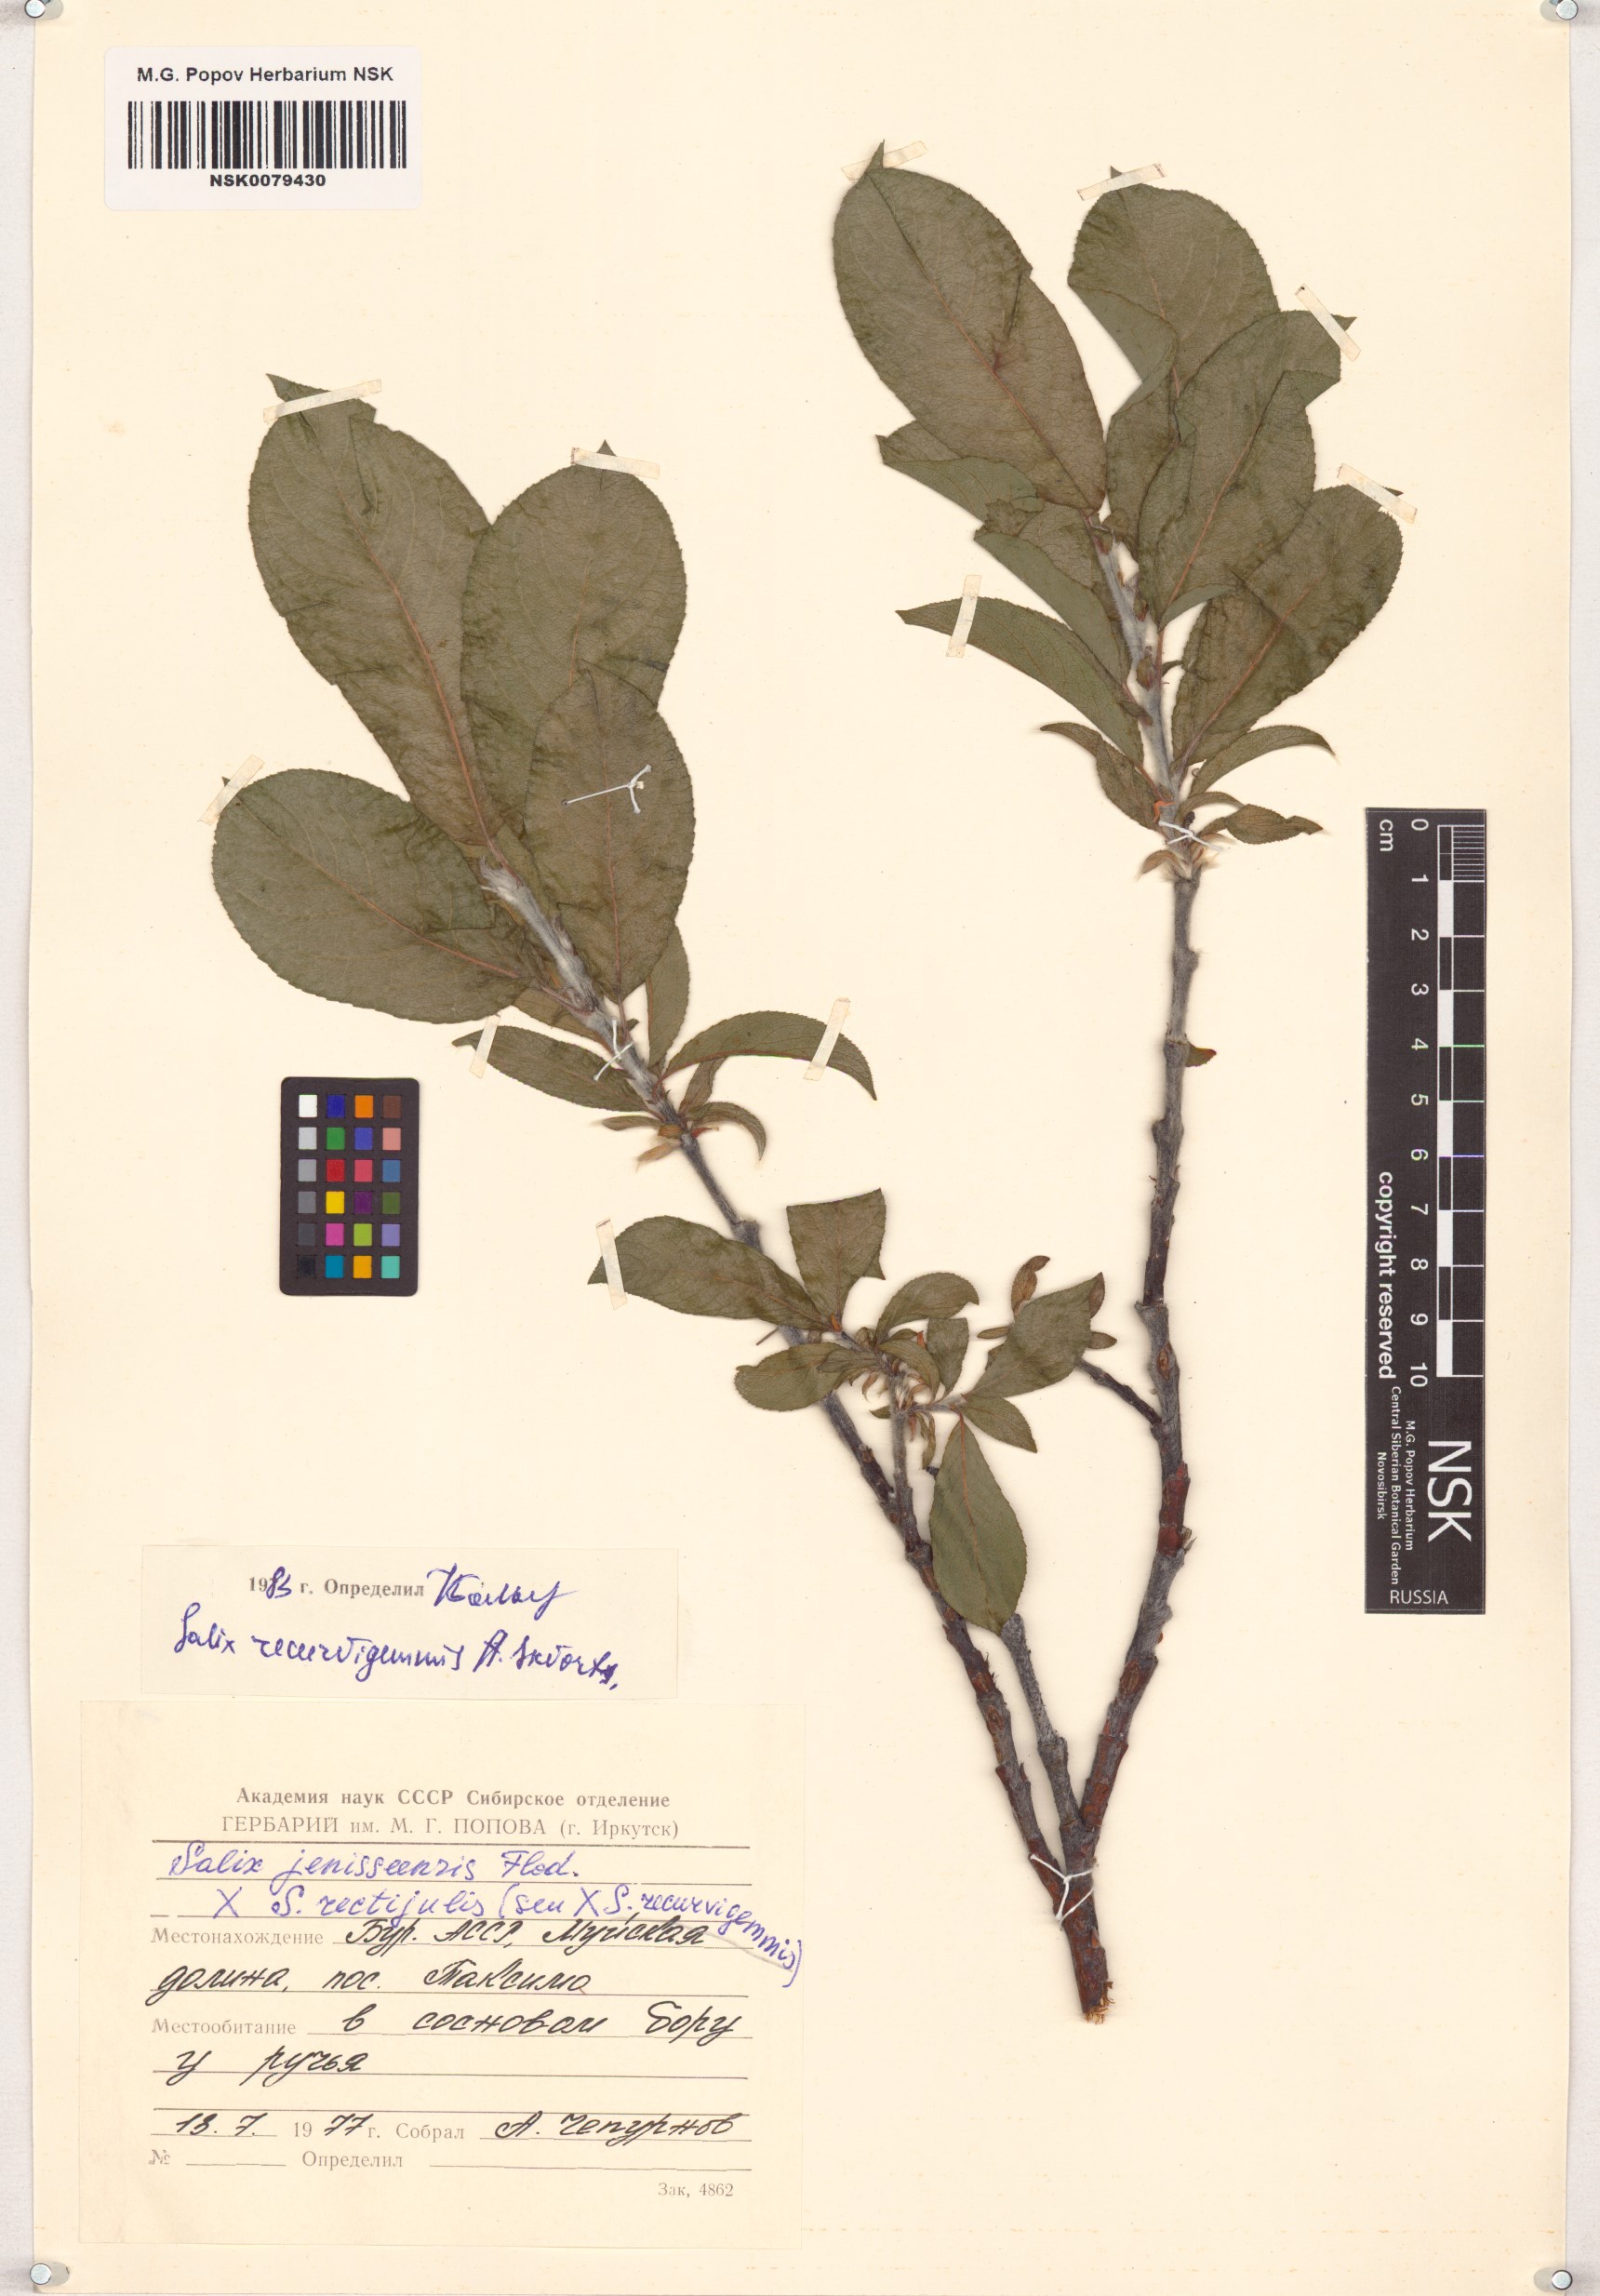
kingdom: Plantae
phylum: Tracheophyta
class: Magnoliopsida
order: Malpighiales
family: Salicaceae
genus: Salix
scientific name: Salix recurvigemmata
